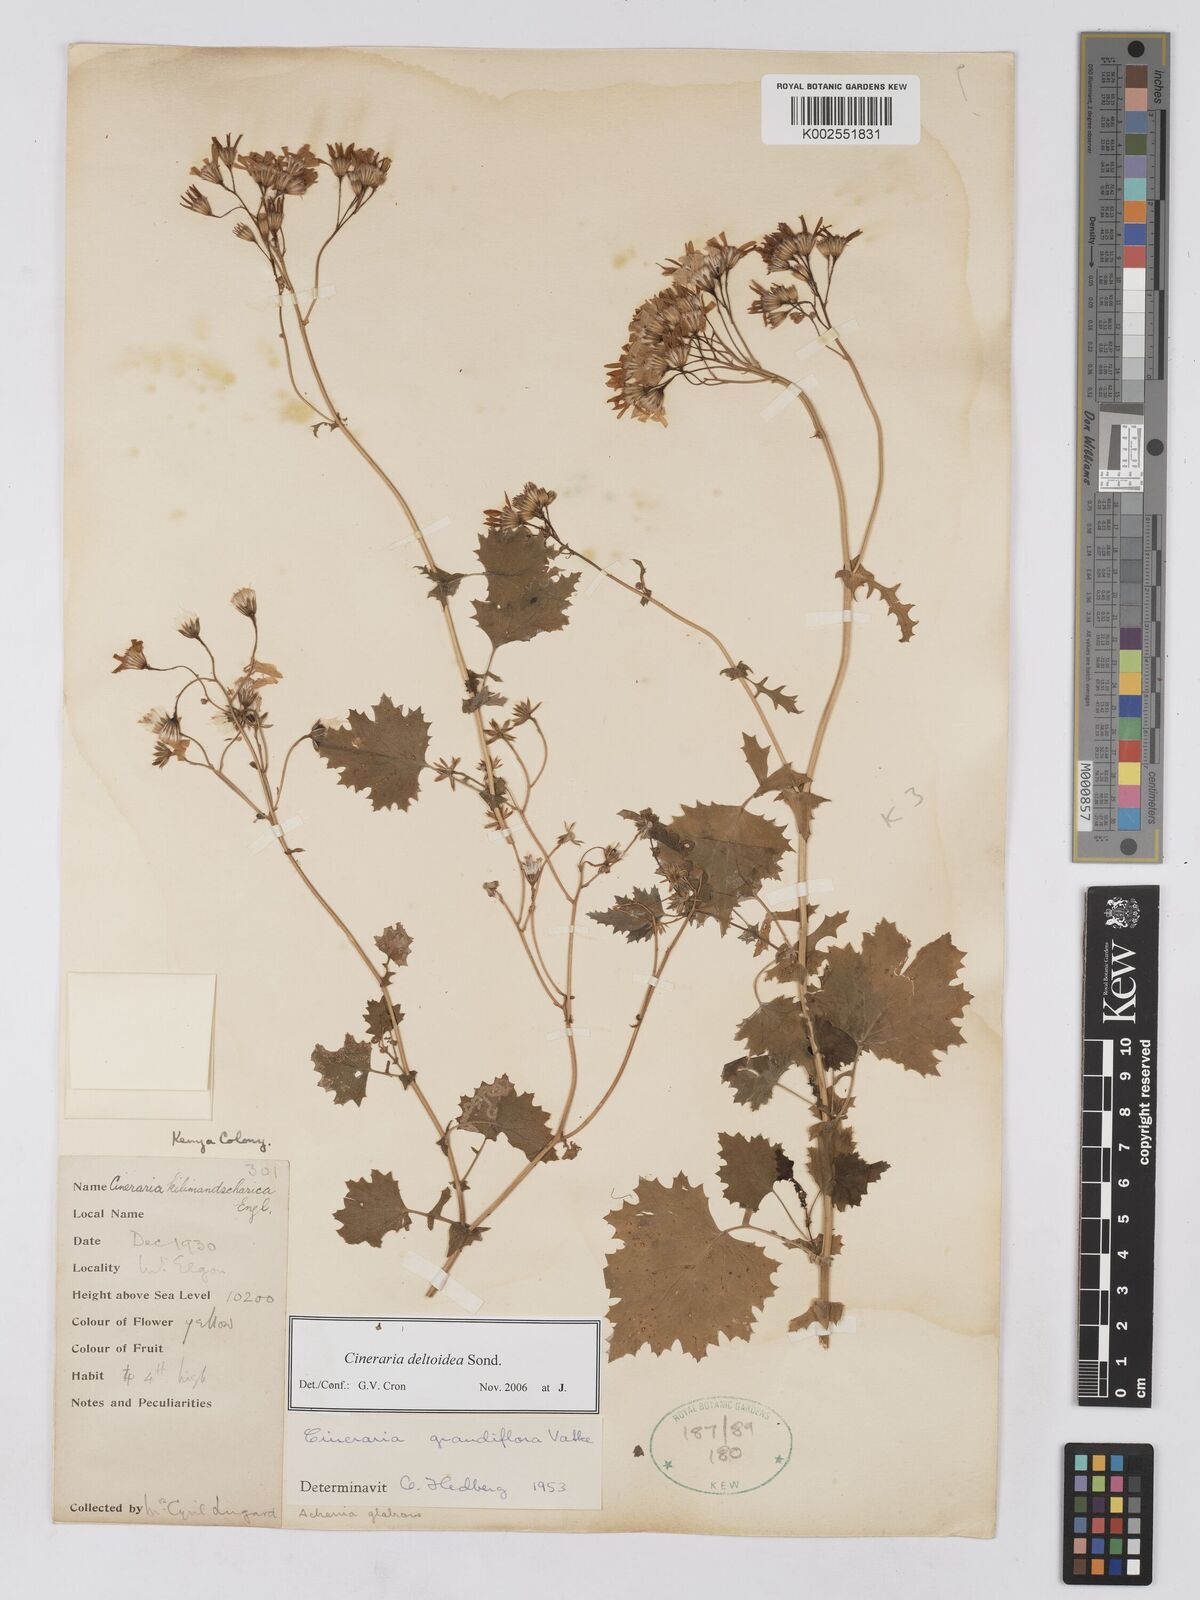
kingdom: Plantae
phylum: Tracheophyta
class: Magnoliopsida
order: Asterales
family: Asteraceae
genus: Cineraria
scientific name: Cineraria deltoidea
